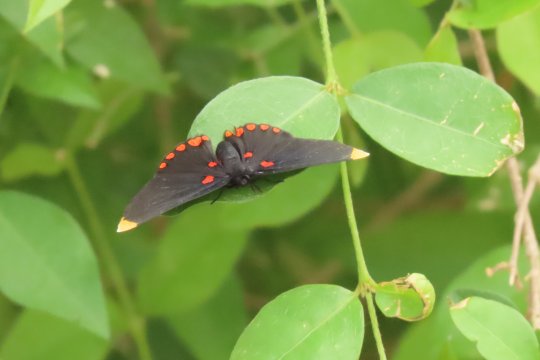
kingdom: Animalia
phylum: Arthropoda
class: Insecta
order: Lepidoptera
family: Lycaenidae
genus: Melanis
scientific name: Melanis pixe
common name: Red-bordered Pixie
